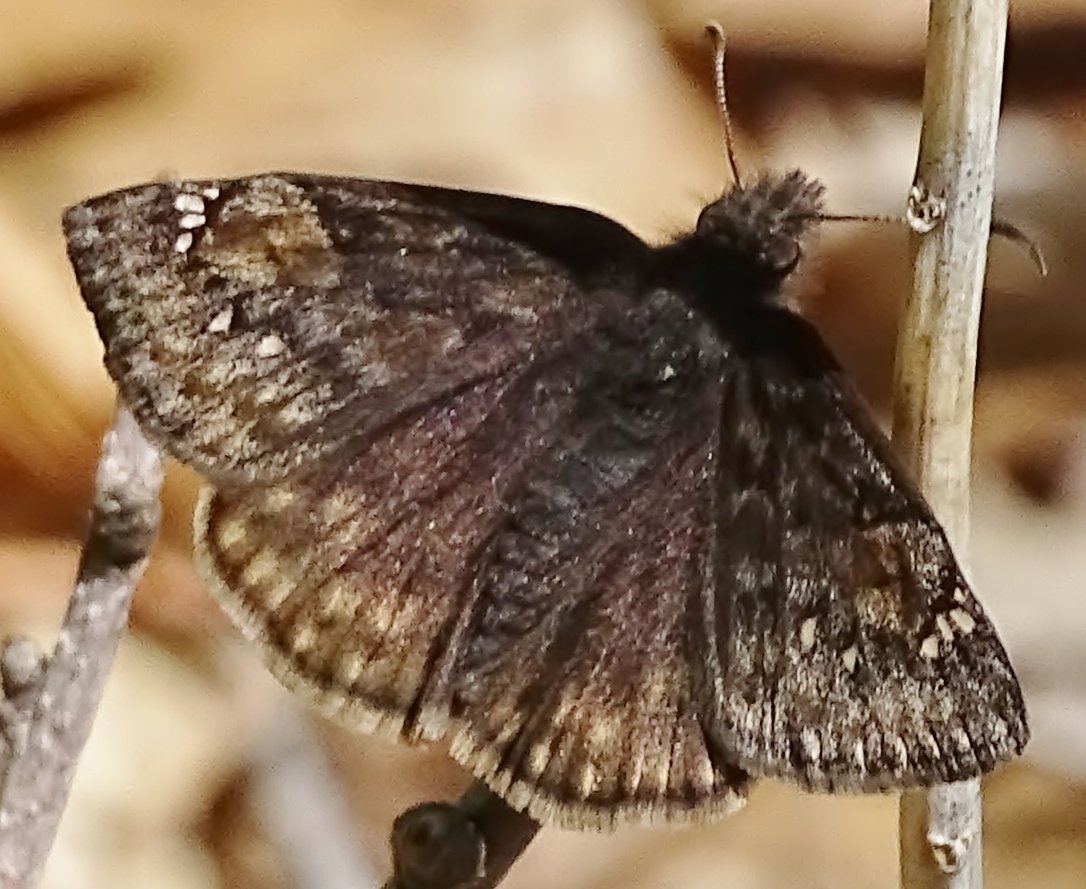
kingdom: Animalia
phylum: Arthropoda
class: Insecta
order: Lepidoptera
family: Hesperiidae
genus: Gesta
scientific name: Gesta
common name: Juvenal's Duskywing
